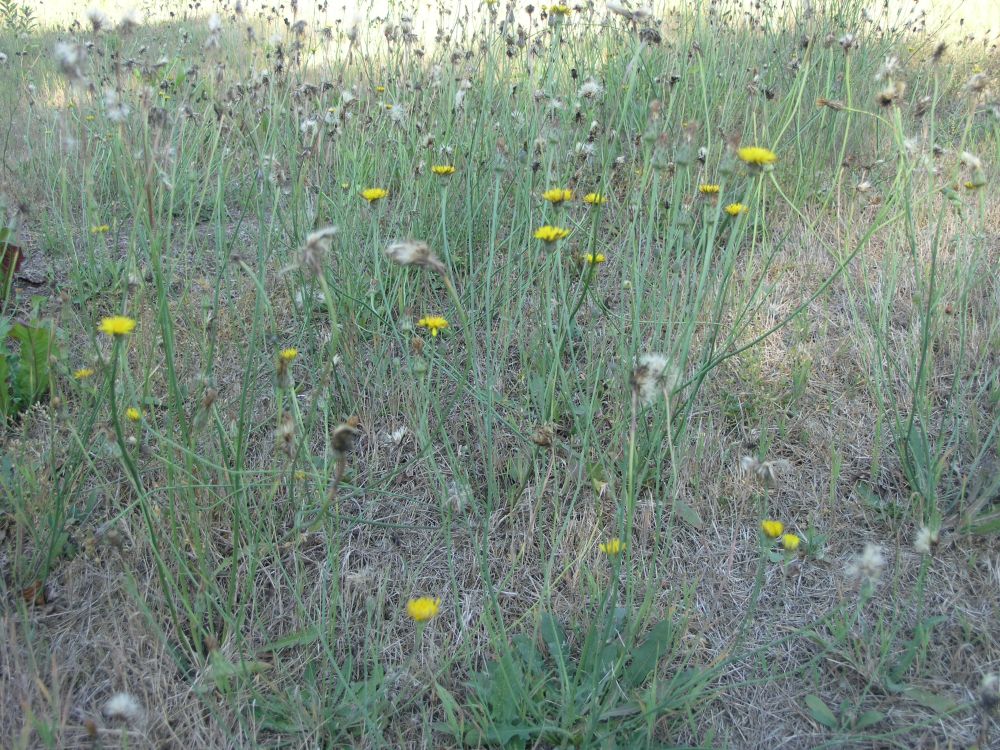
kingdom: Plantae
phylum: Tracheophyta
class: Magnoliopsida
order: Asterales
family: Asteraceae
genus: Hypochaeris
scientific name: Hypochaeris radicata
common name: Flatweed
